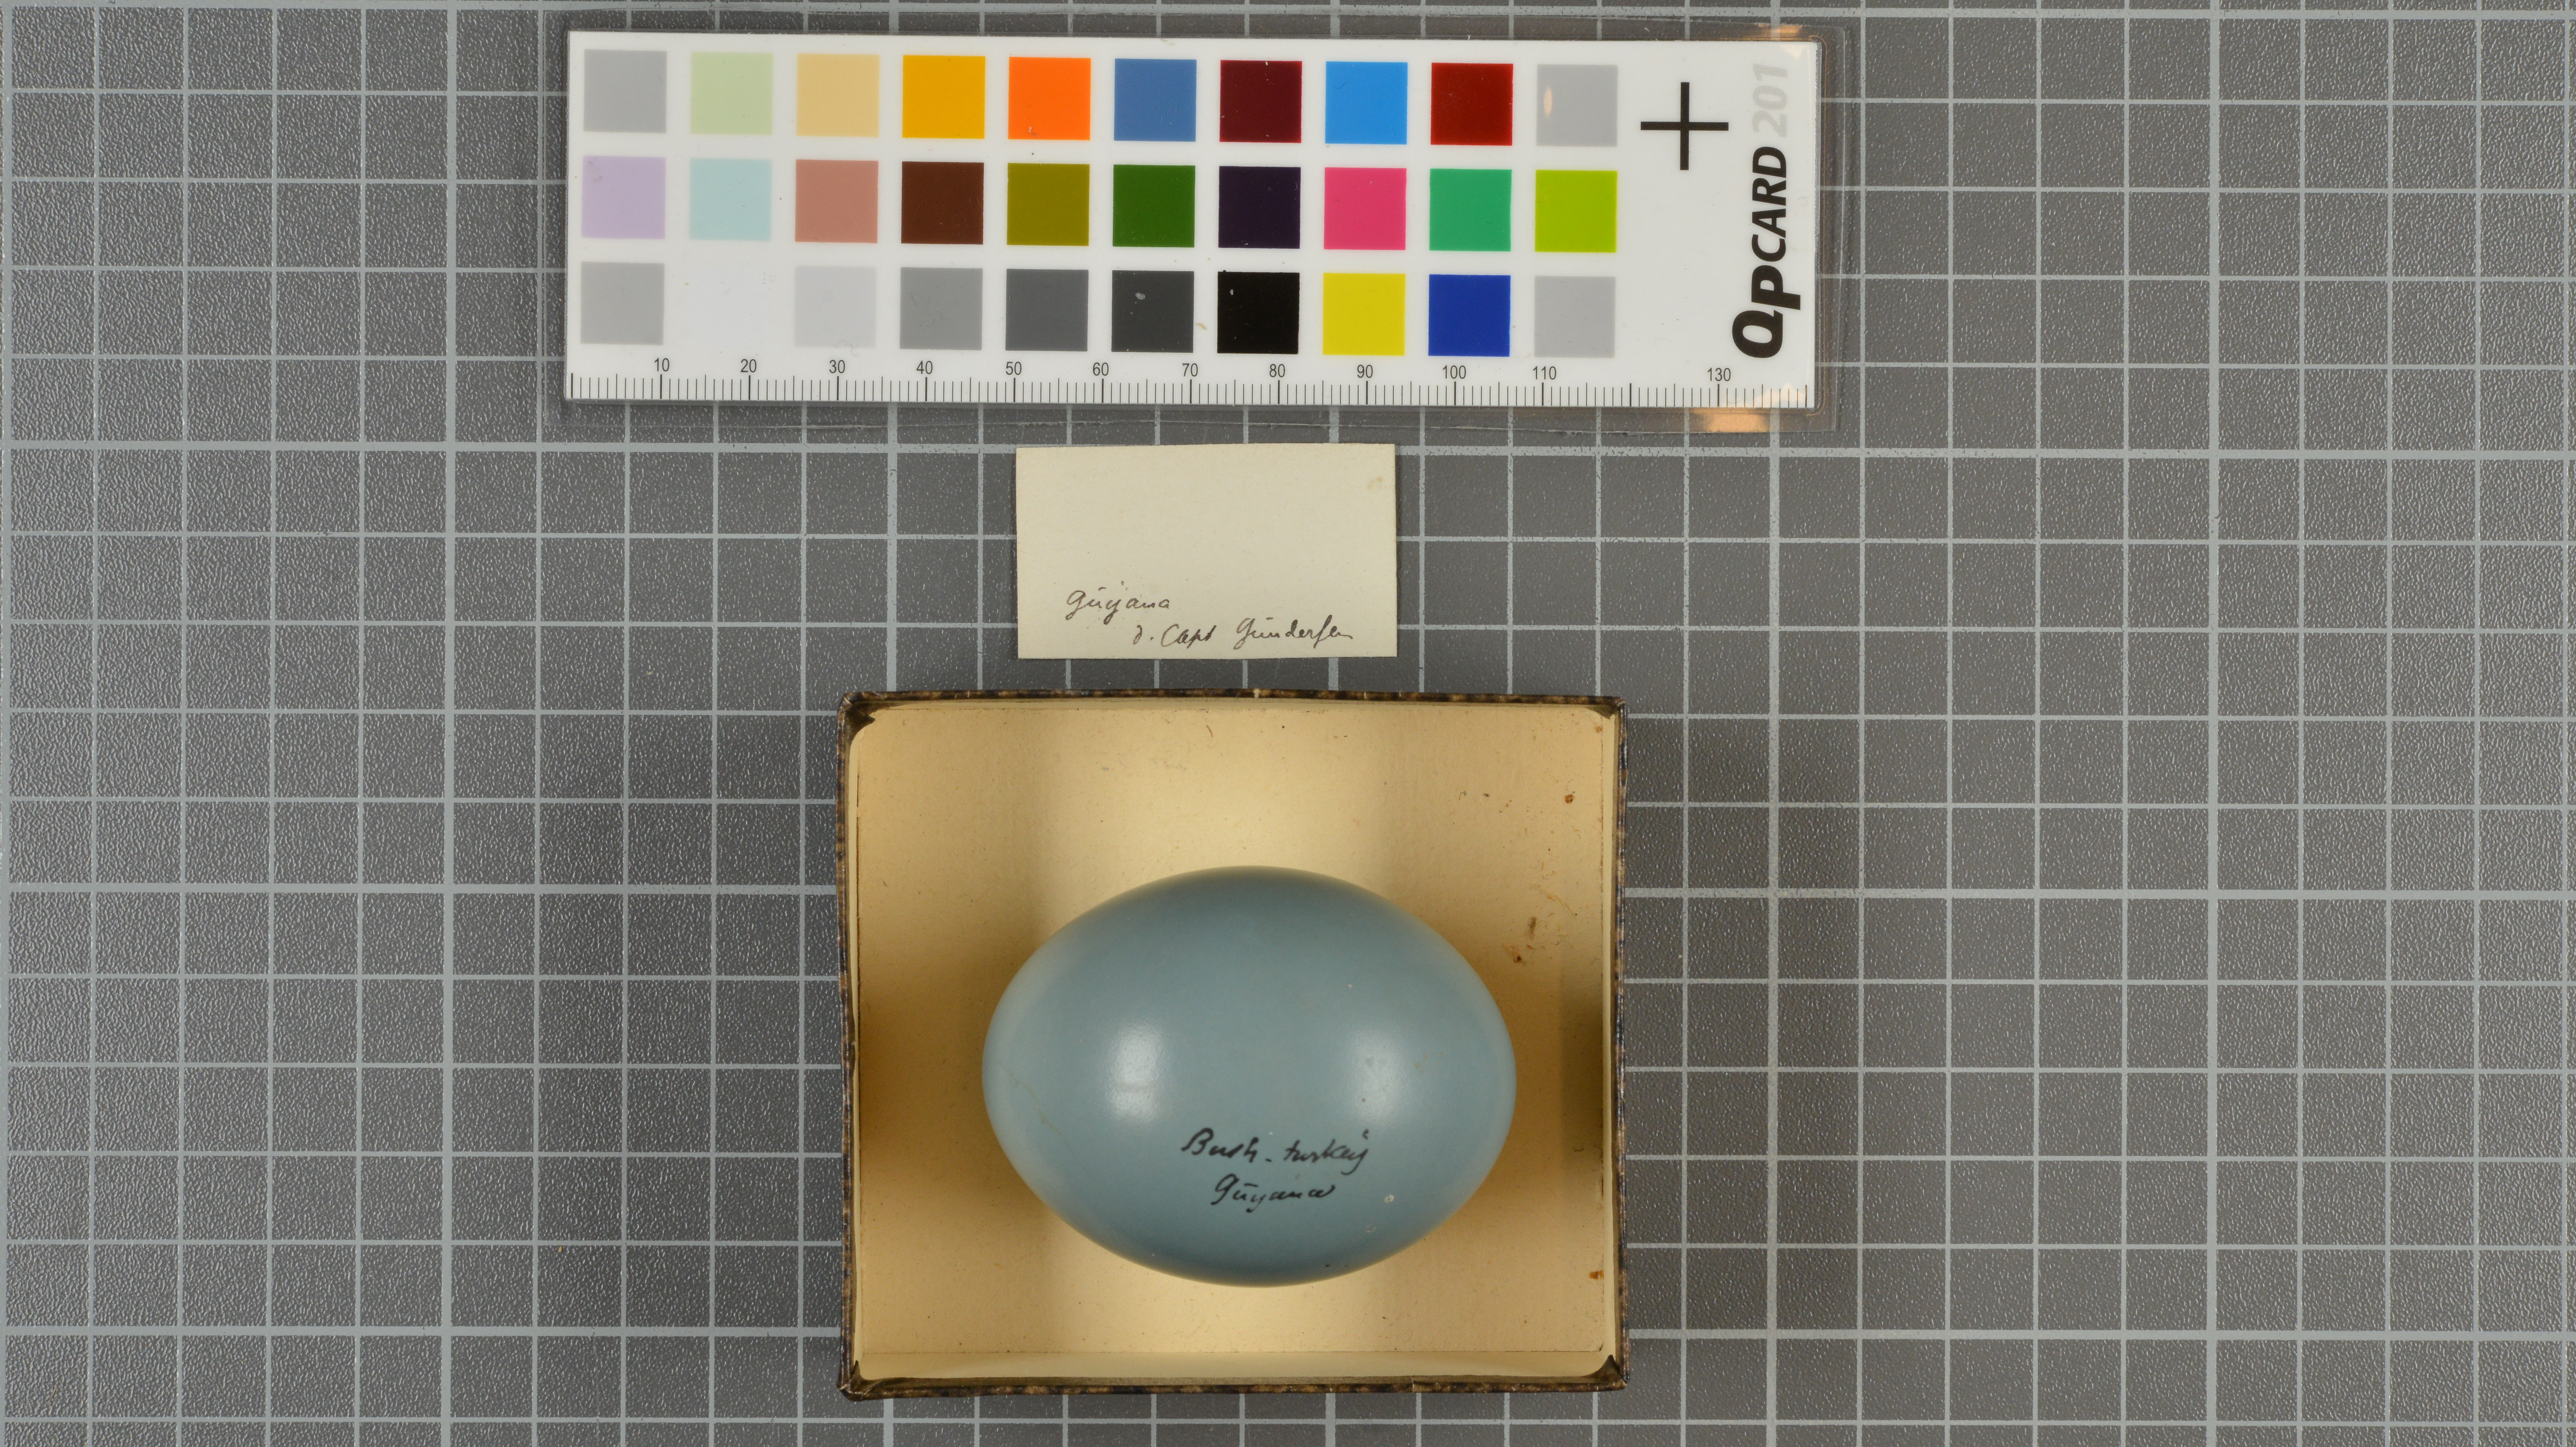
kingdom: Animalia
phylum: Chordata
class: Aves
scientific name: Aves
